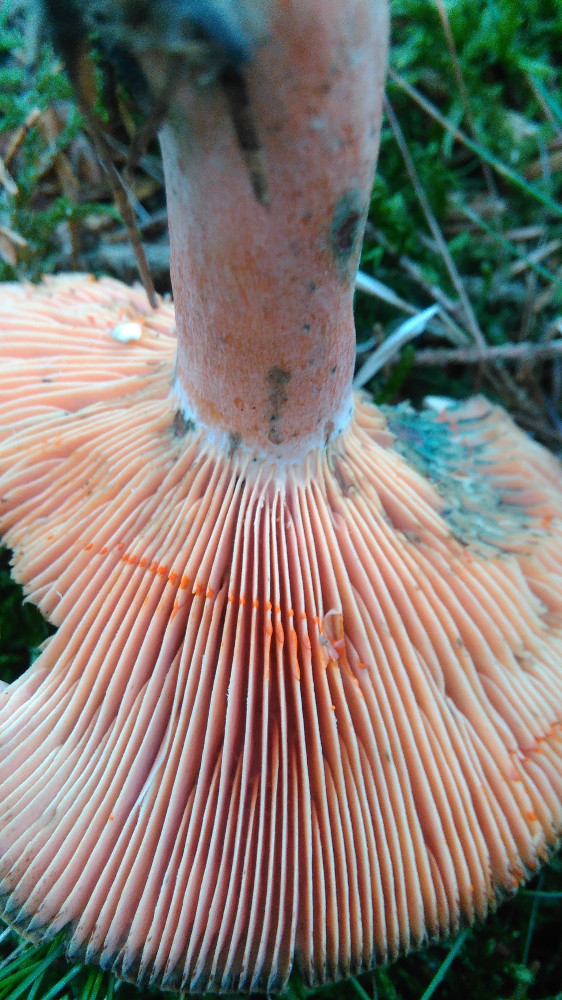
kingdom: Fungi
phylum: Basidiomycota
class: Agaricomycetes
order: Russulales
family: Russulaceae
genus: Lactarius
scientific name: Lactarius deterrimus
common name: gran-mælkehat
